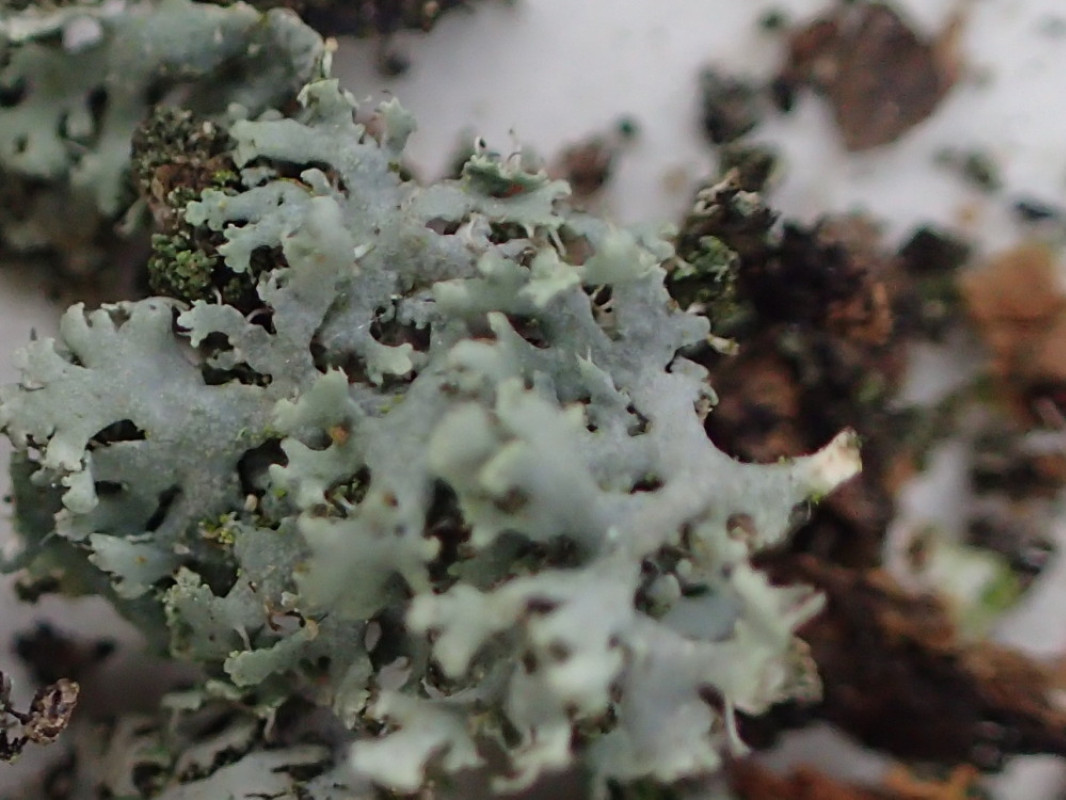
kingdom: Fungi
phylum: Ascomycota
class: Lecanoromycetes
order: Caliciales
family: Physciaceae
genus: Physcia
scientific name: Physcia tenella
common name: spæd rosetlav
